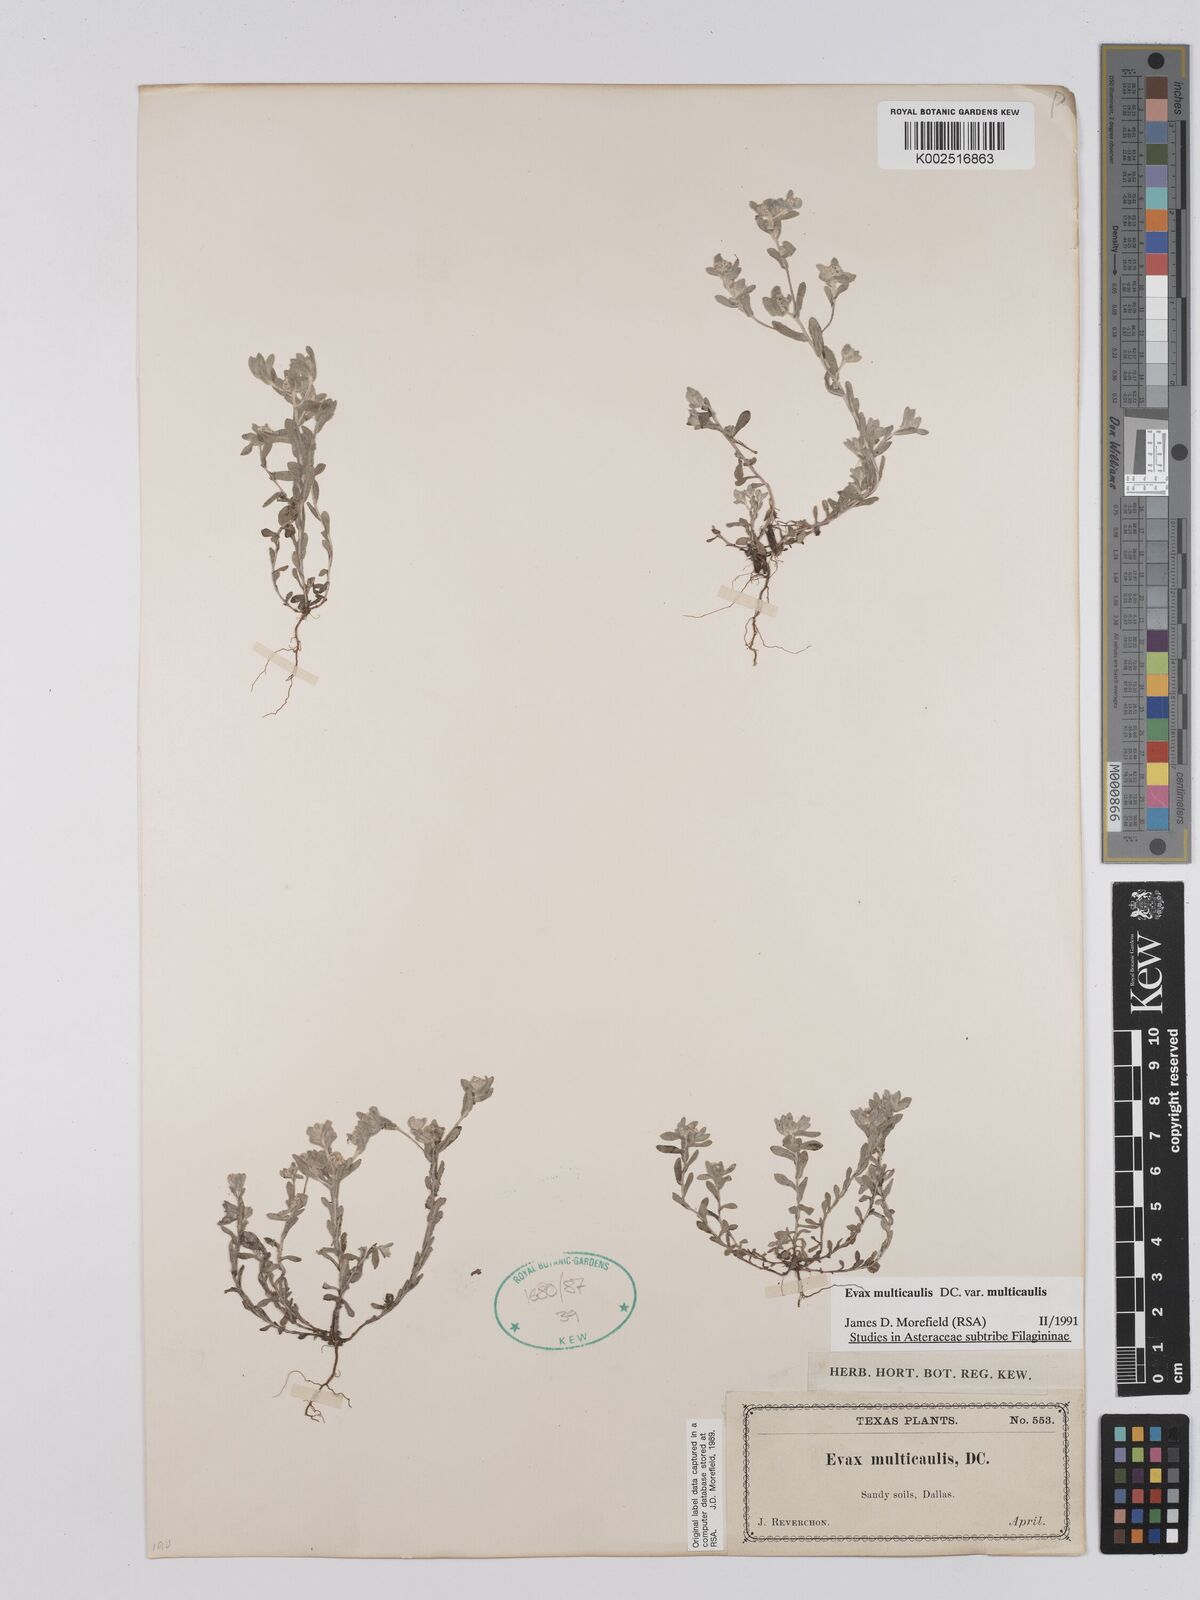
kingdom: Plantae
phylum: Tracheophyta
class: Magnoliopsida
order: Asterales
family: Asteraceae
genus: Filago
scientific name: Filago
